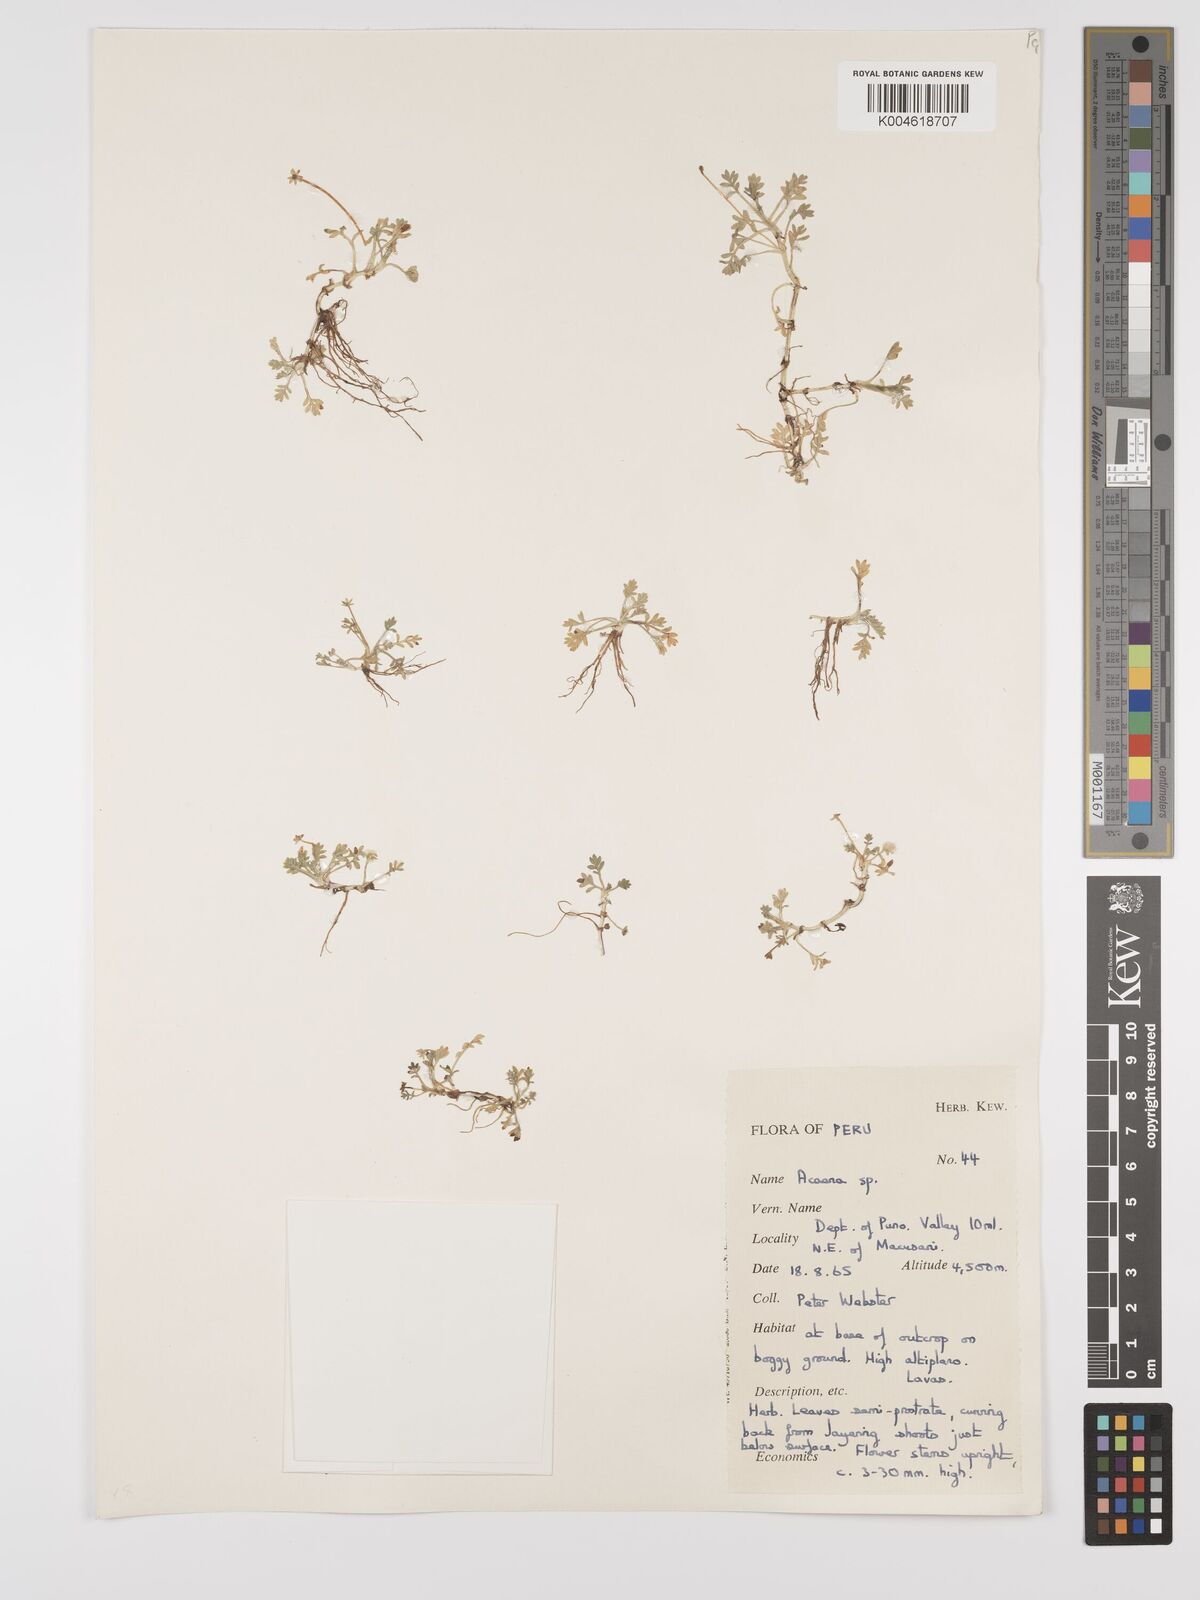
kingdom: Plantae
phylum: Tracheophyta
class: Magnoliopsida
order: Rosales
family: Rosaceae
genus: Acaena
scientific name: Acaena
